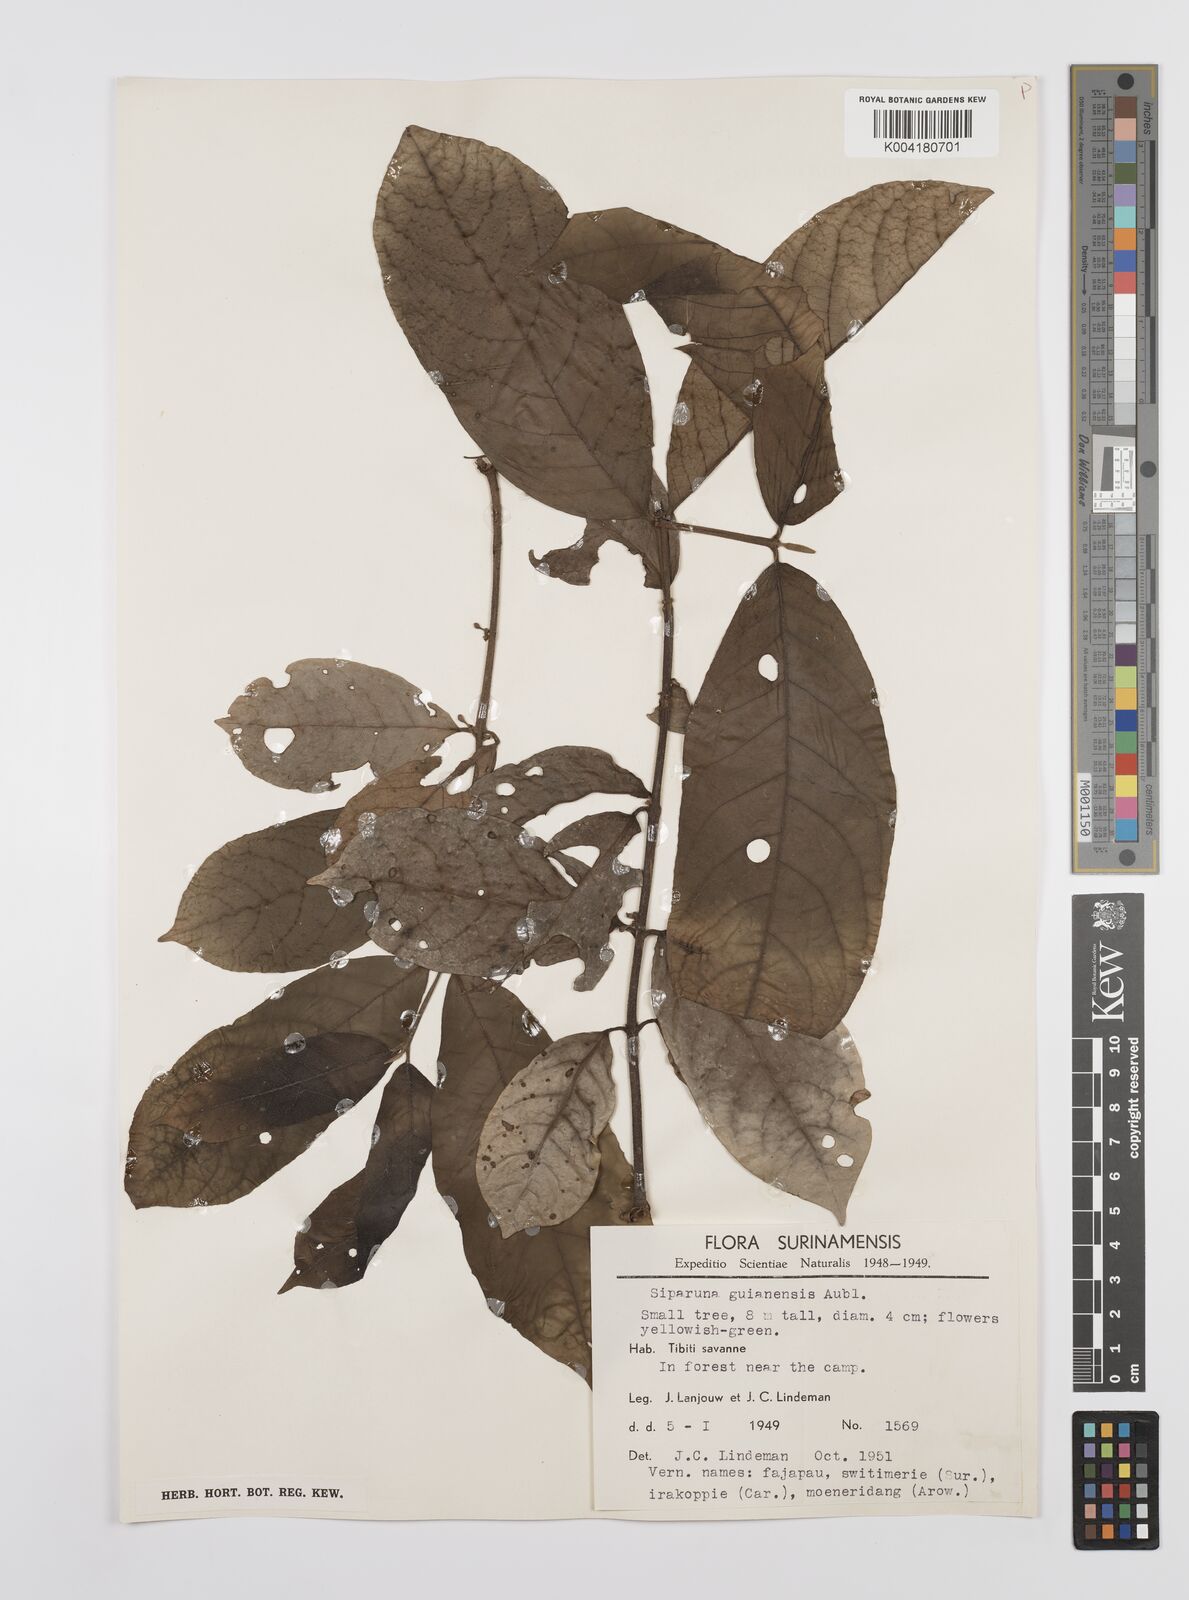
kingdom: Plantae
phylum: Tracheophyta
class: Magnoliopsida
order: Laurales
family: Siparunaceae
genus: Siparuna
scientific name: Siparuna guianensis
